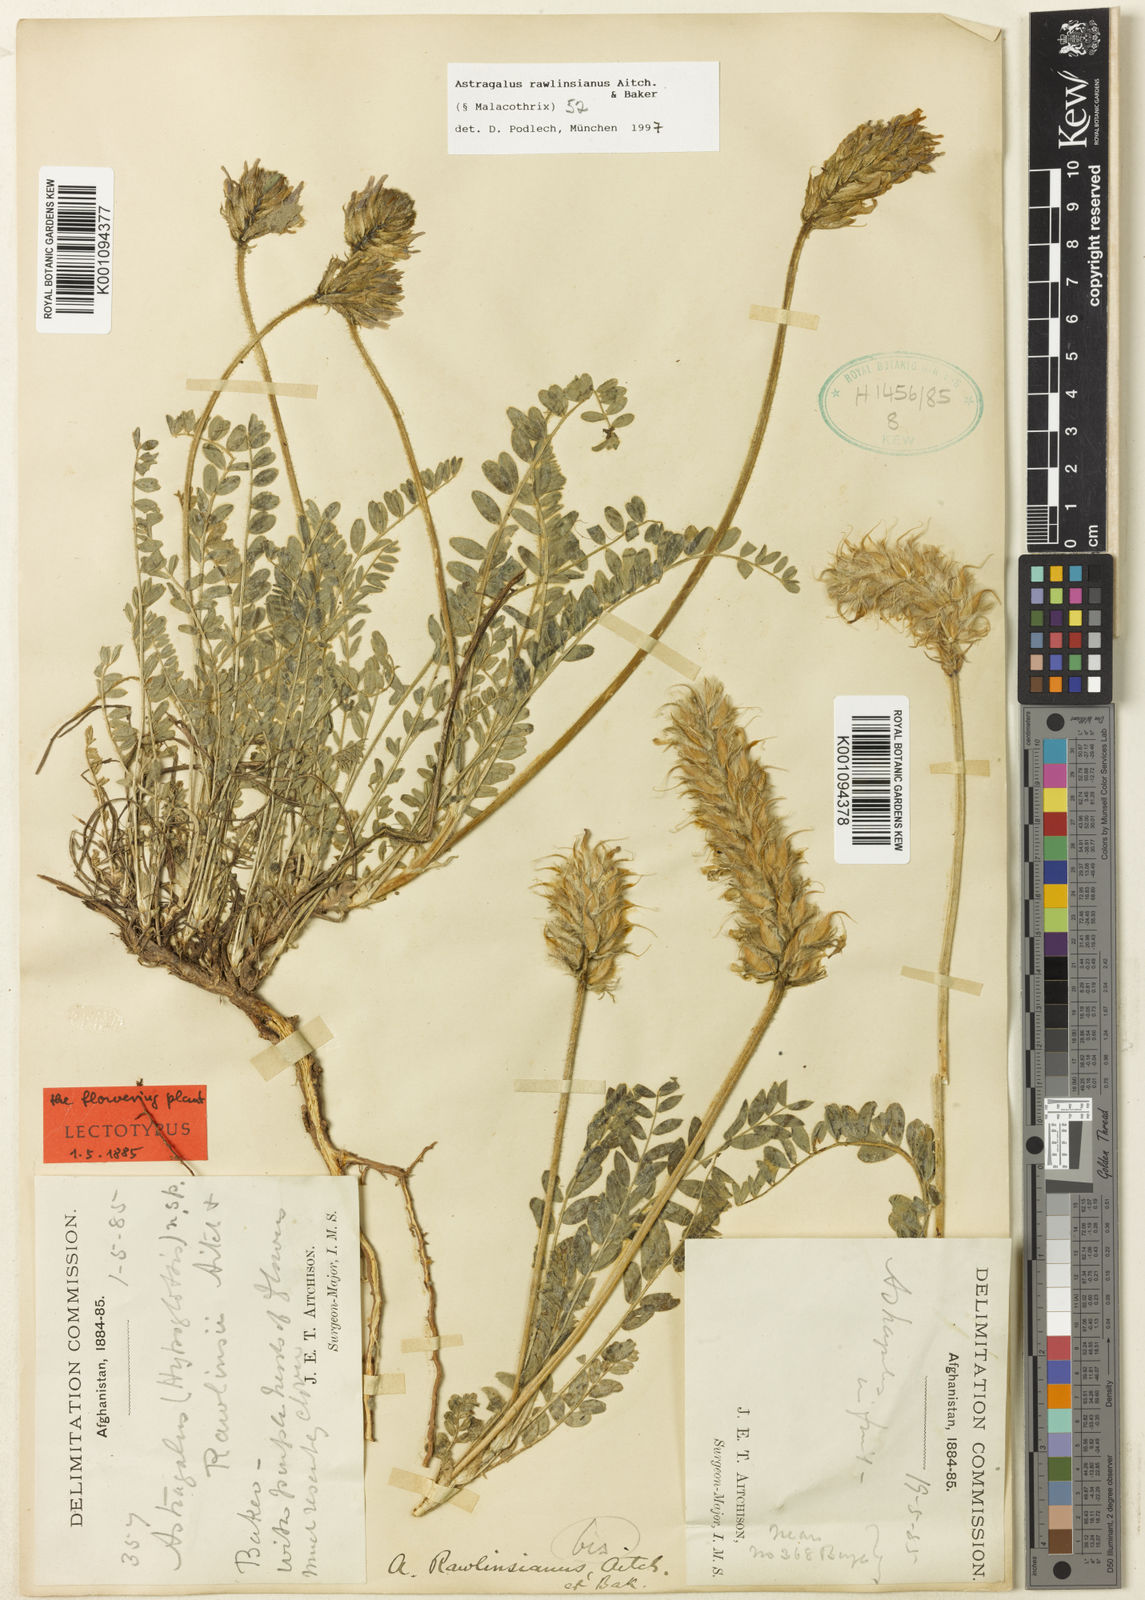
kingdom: Plantae
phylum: Tracheophyta
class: Magnoliopsida
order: Fabales
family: Fabaceae
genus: Astragalus
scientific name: Astragalus
